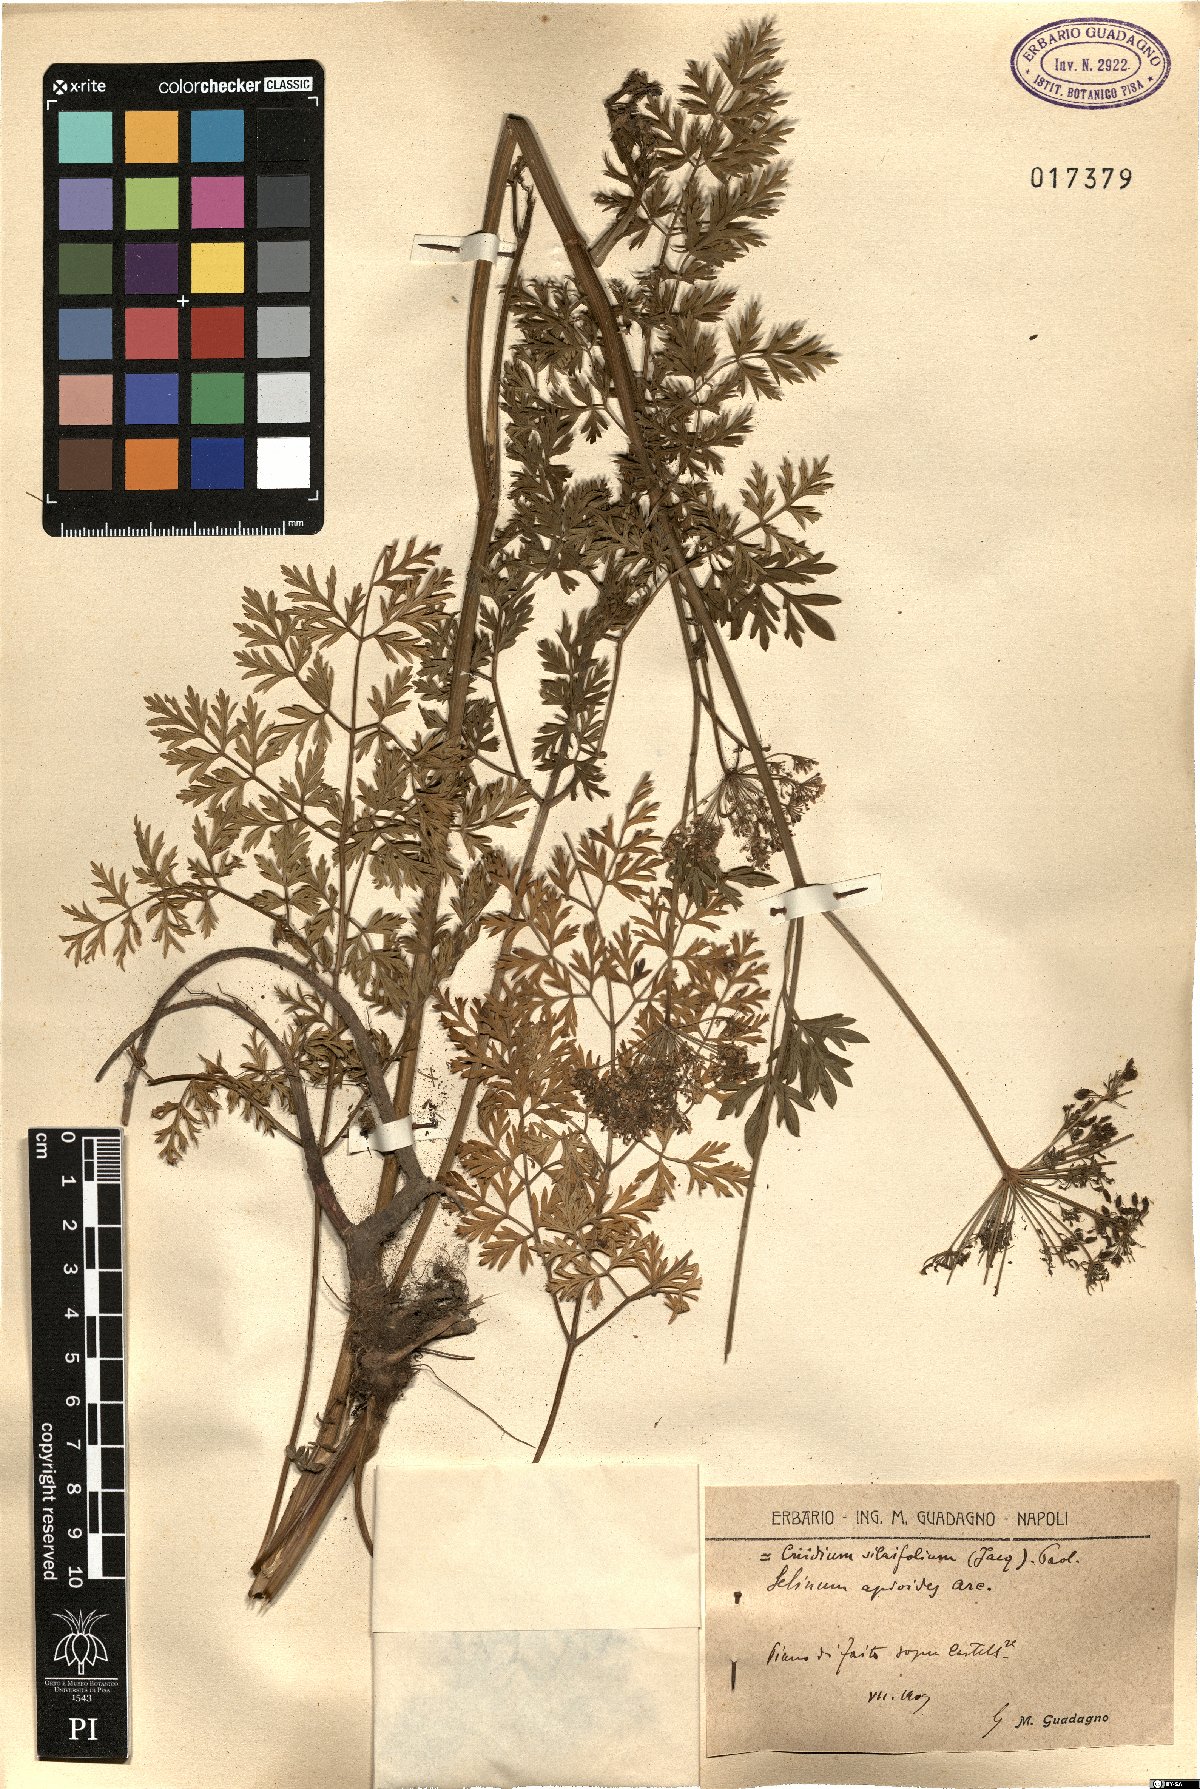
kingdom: Plantae
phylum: Tracheophyta
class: Magnoliopsida
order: Apiales
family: Apiaceae
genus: Katapsuxis
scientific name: Katapsuxis silaifolia
